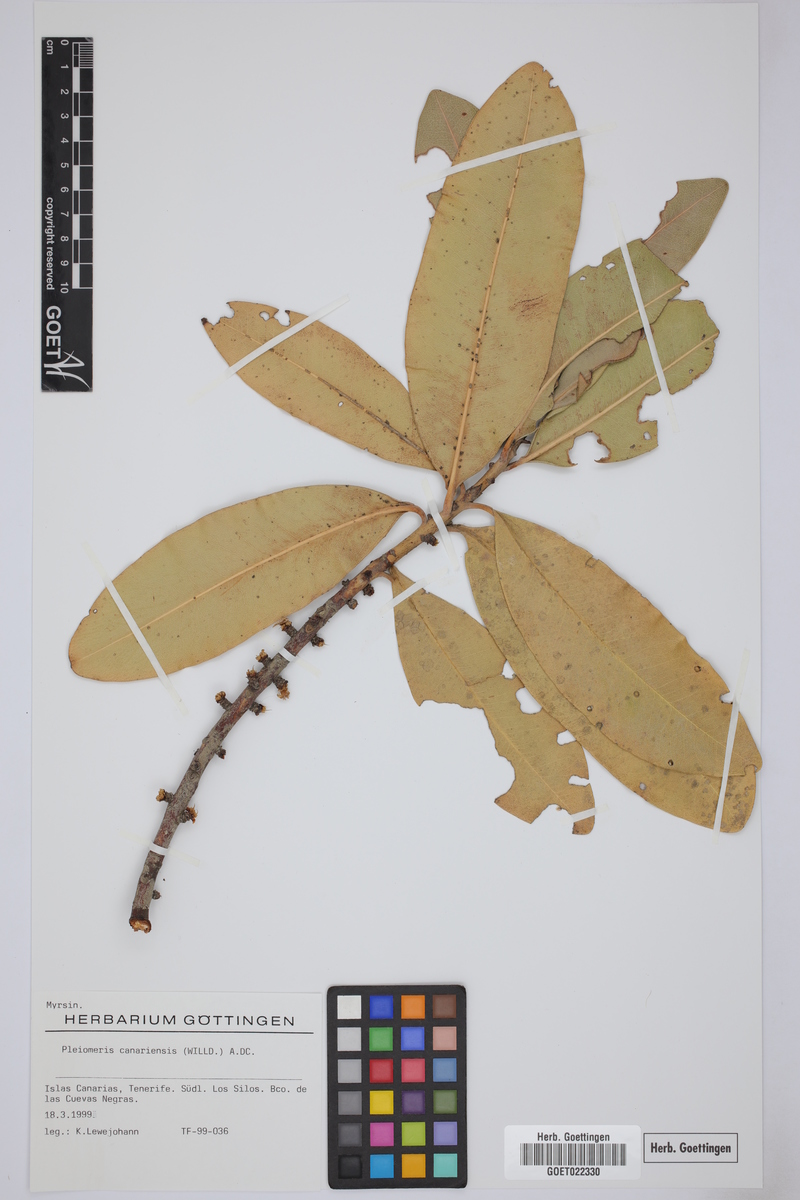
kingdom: Plantae
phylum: Tracheophyta
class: Magnoliopsida
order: Ericales
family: Primulaceae
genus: Pleiomeris
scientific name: Pleiomeris canariensis
